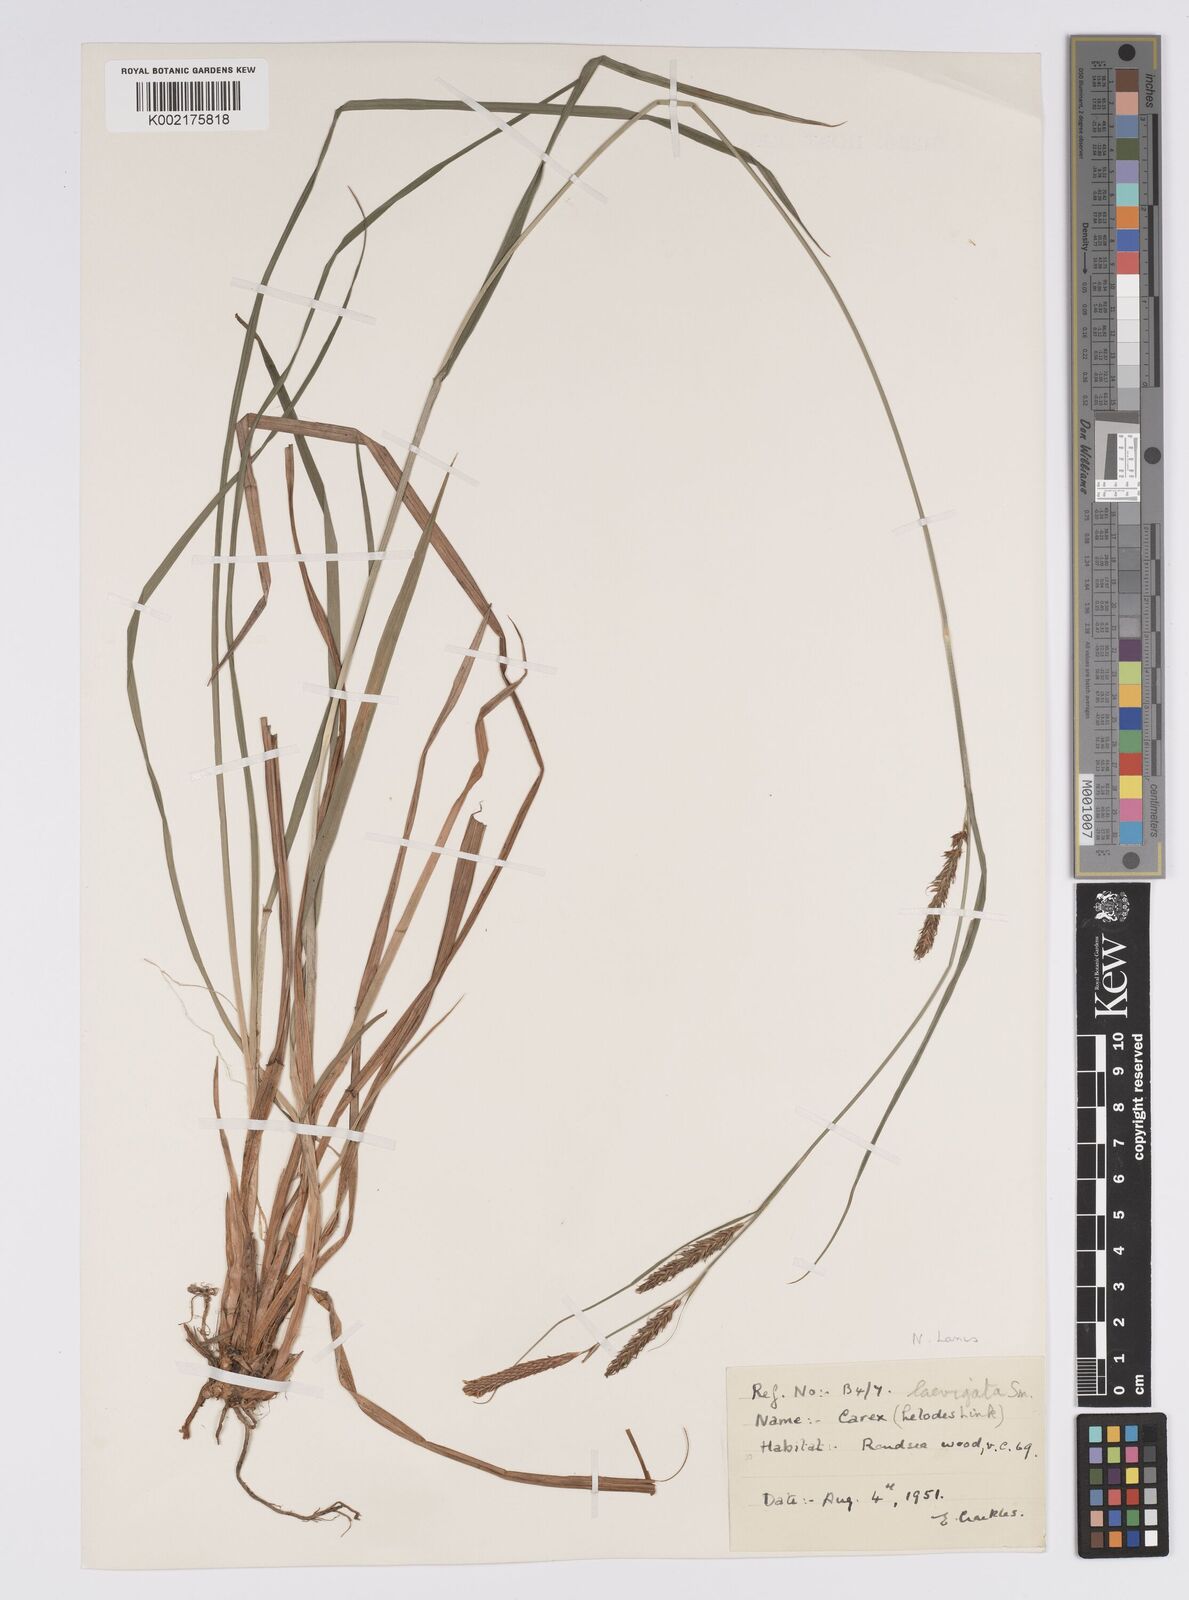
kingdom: Plantae
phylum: Tracheophyta
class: Liliopsida
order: Poales
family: Cyperaceae
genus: Carex
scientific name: Carex laevigata
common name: Smooth-stalked sedge
